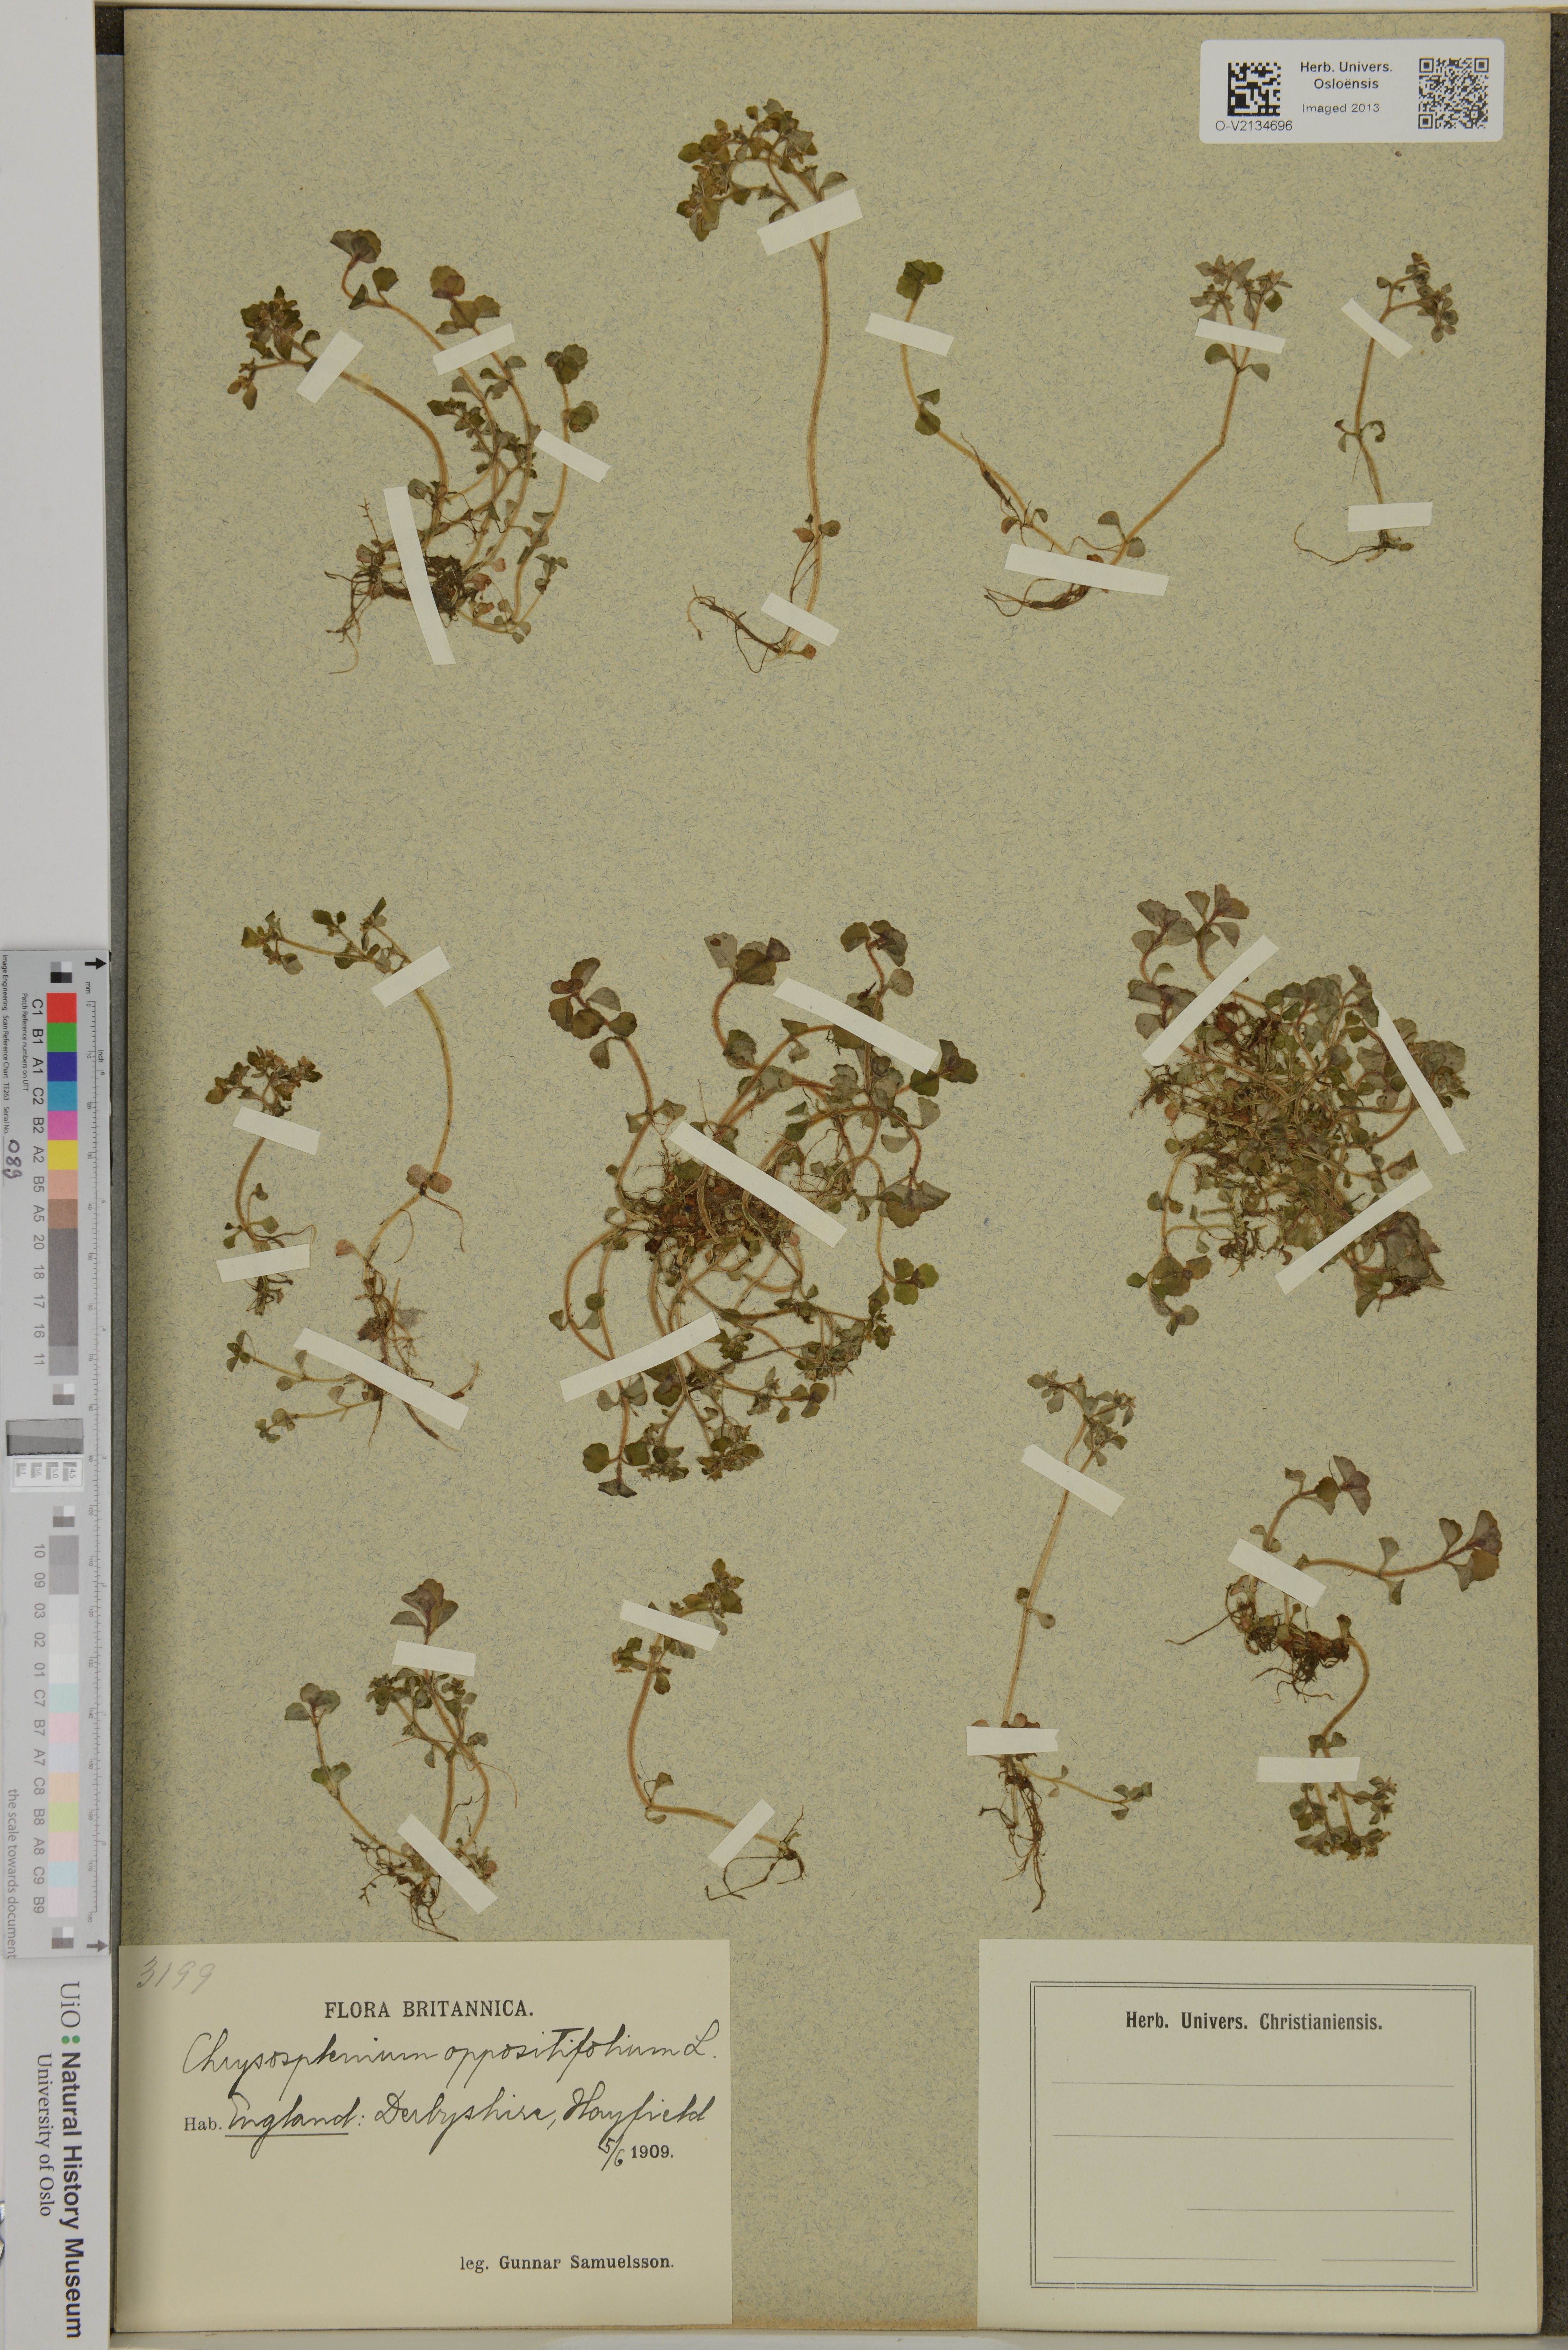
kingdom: Plantae
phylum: Tracheophyta
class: Magnoliopsida
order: Saxifragales
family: Saxifragaceae
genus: Chrysosplenium
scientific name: Chrysosplenium oppositifolium
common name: Opposite-leaved golden-saxifrage
